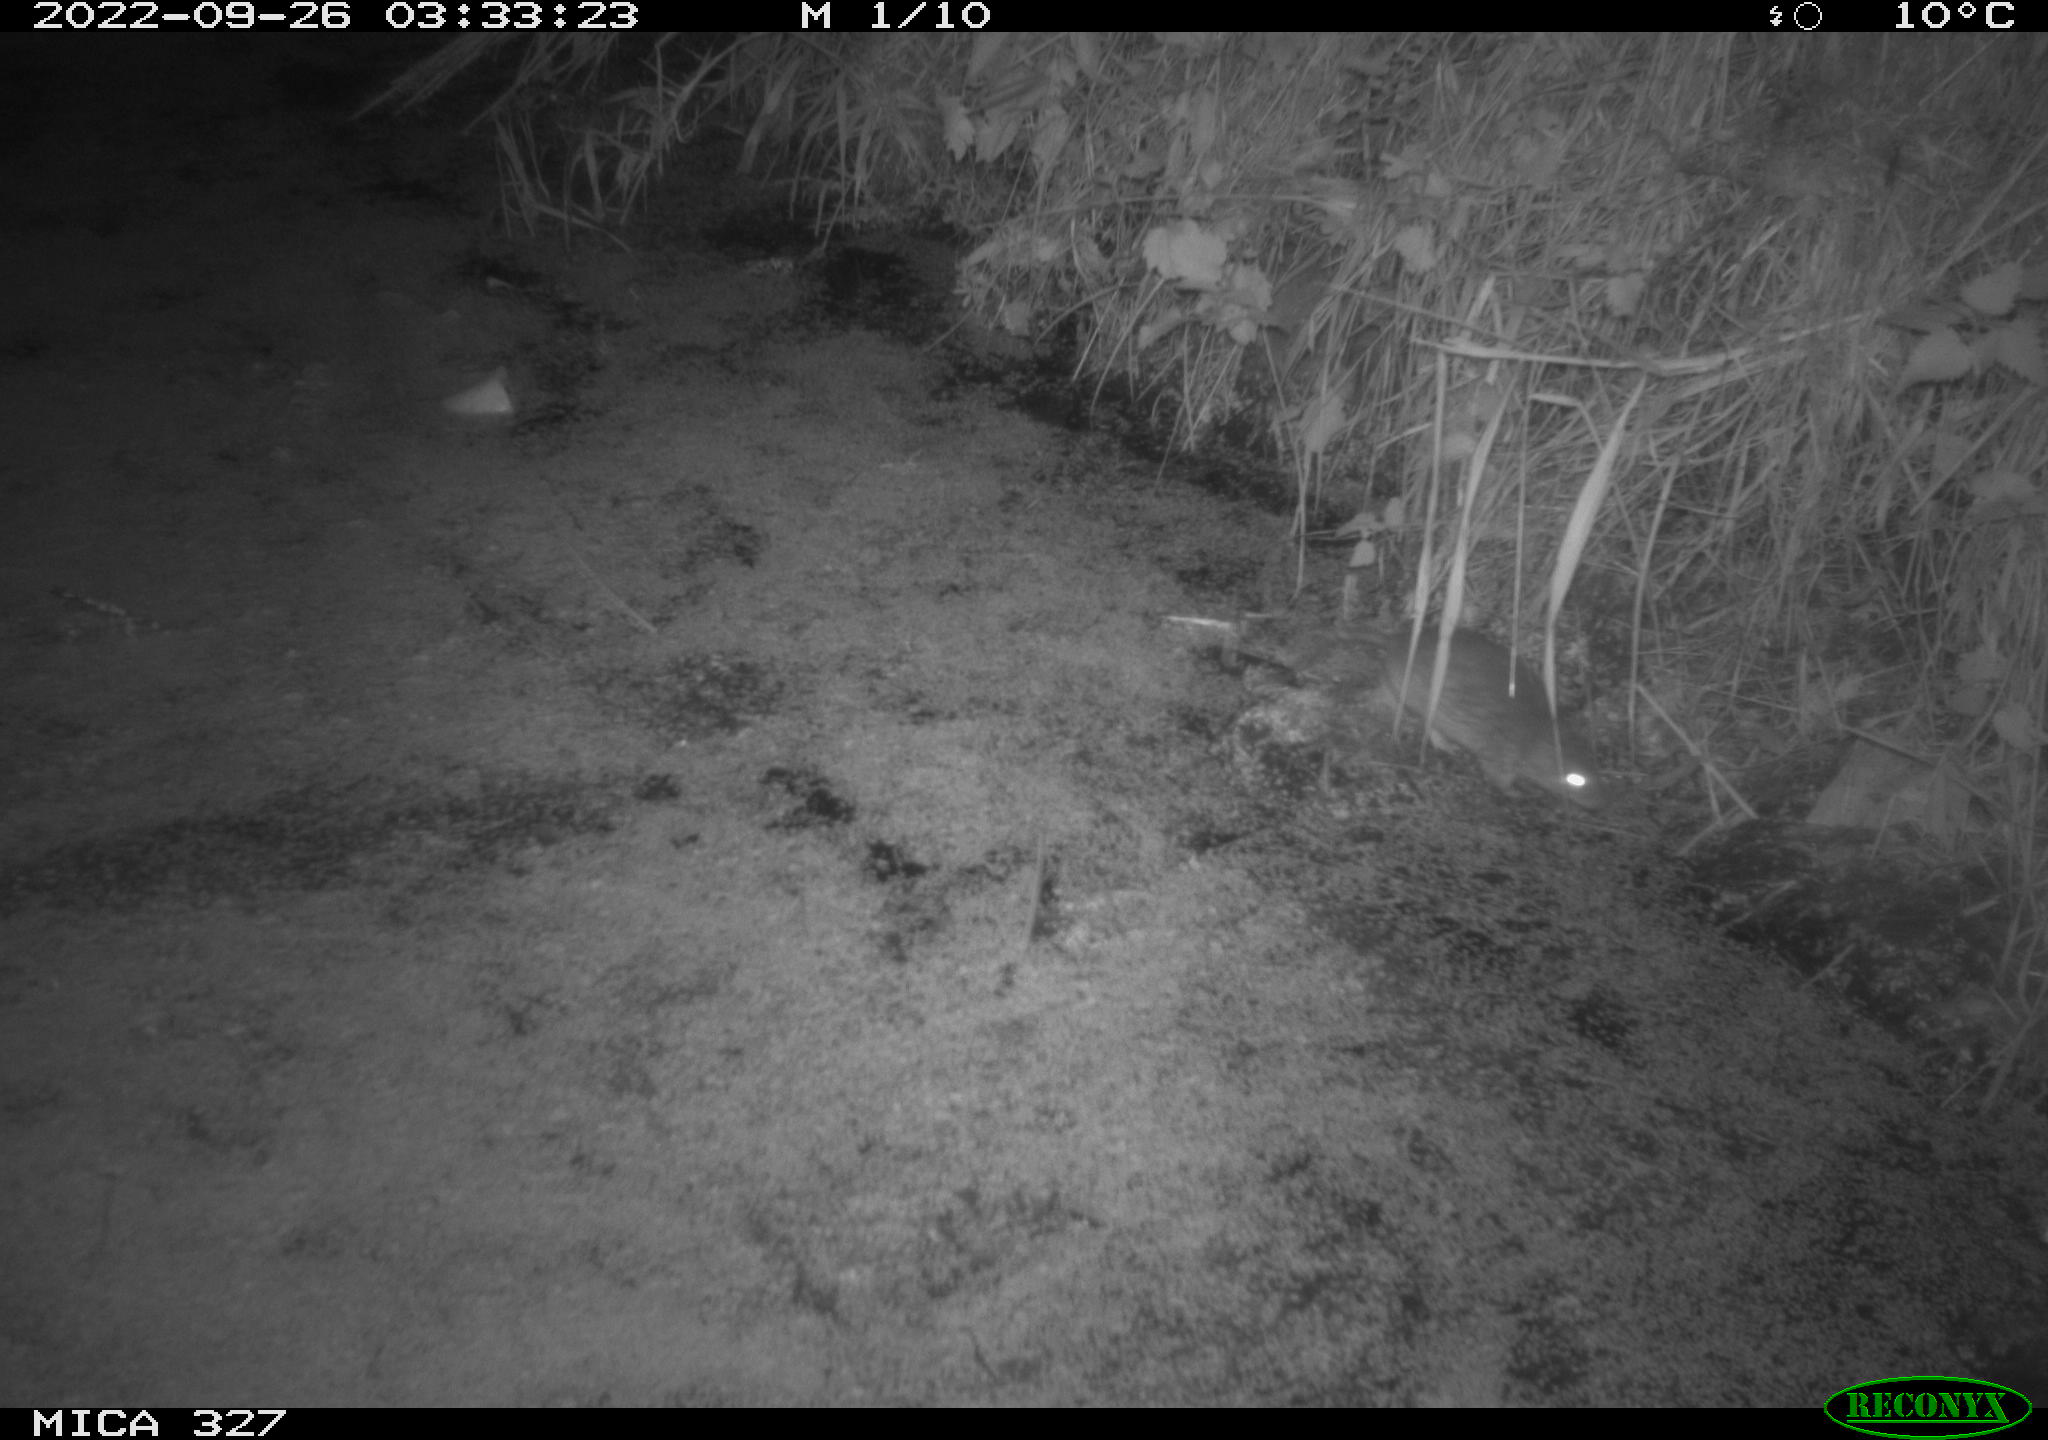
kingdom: Animalia
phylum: Chordata
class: Mammalia
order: Rodentia
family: Muridae
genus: Rattus
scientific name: Rattus norvegicus
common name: Brown rat
